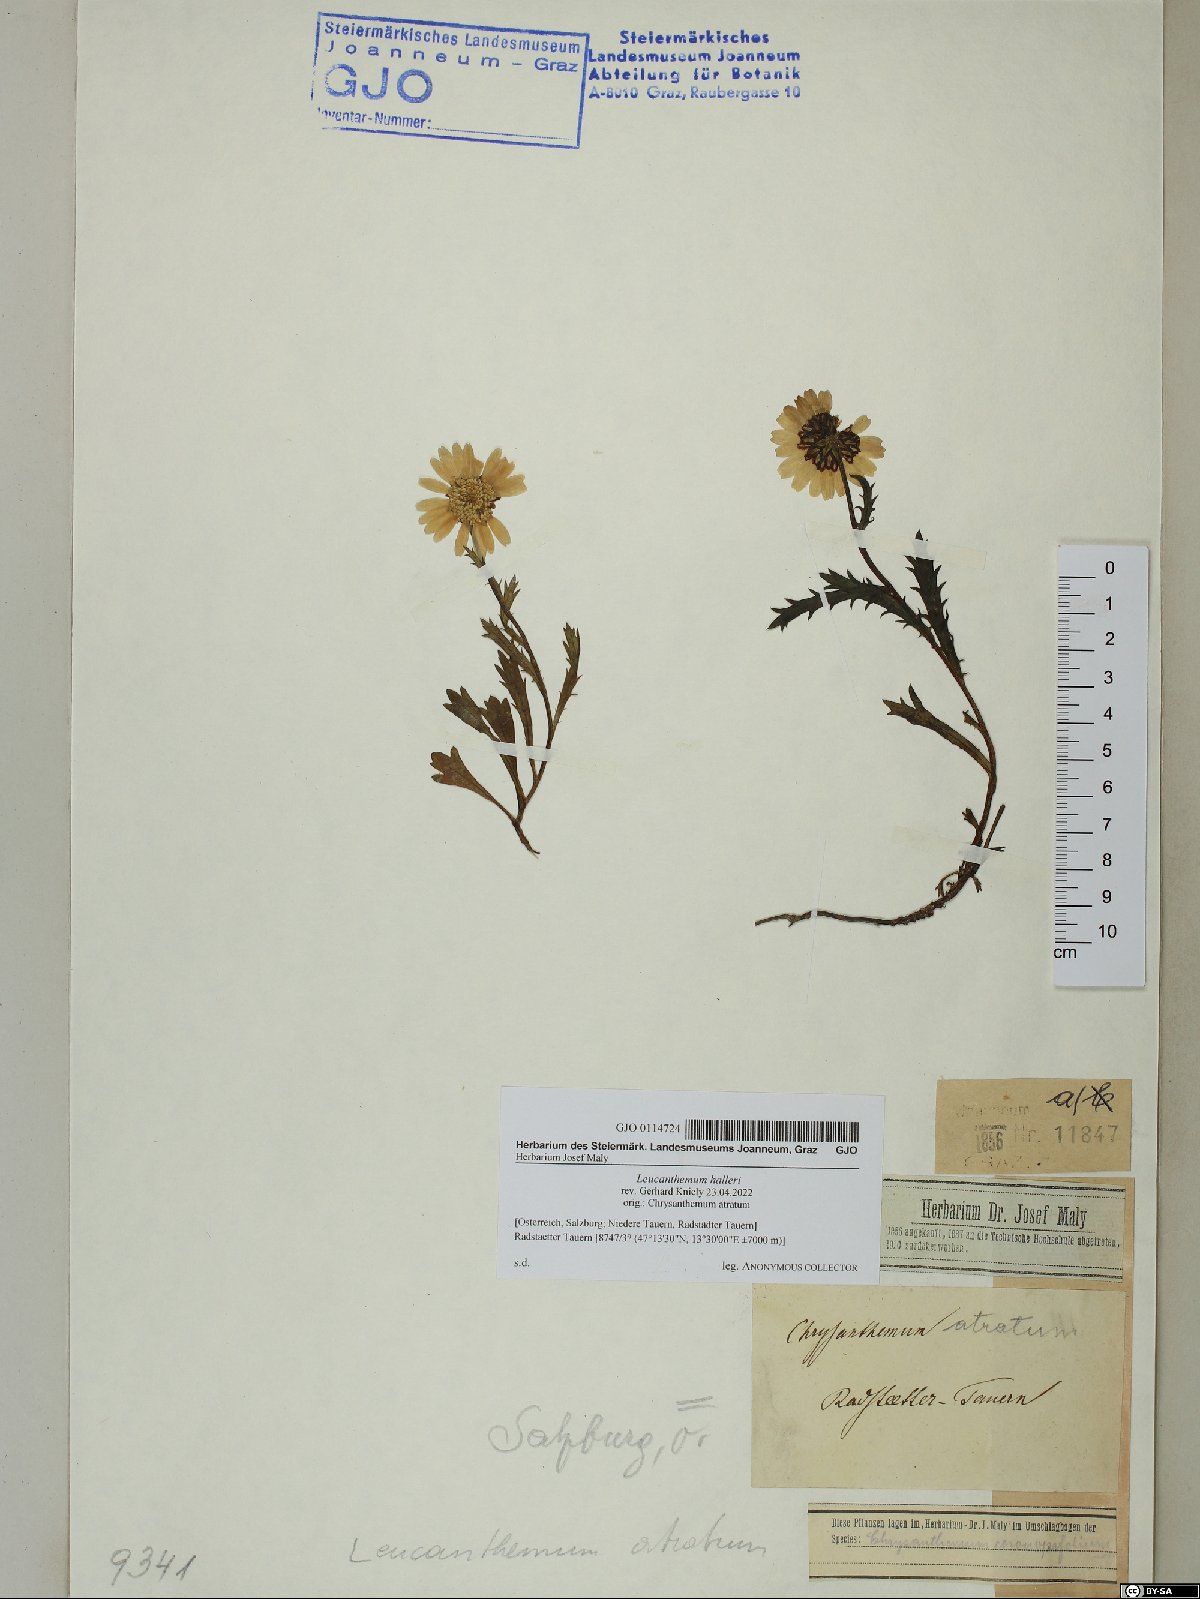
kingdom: Plantae
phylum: Tracheophyta
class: Magnoliopsida
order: Asterales
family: Asteraceae
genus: Leucanthemum
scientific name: Leucanthemum halleri
